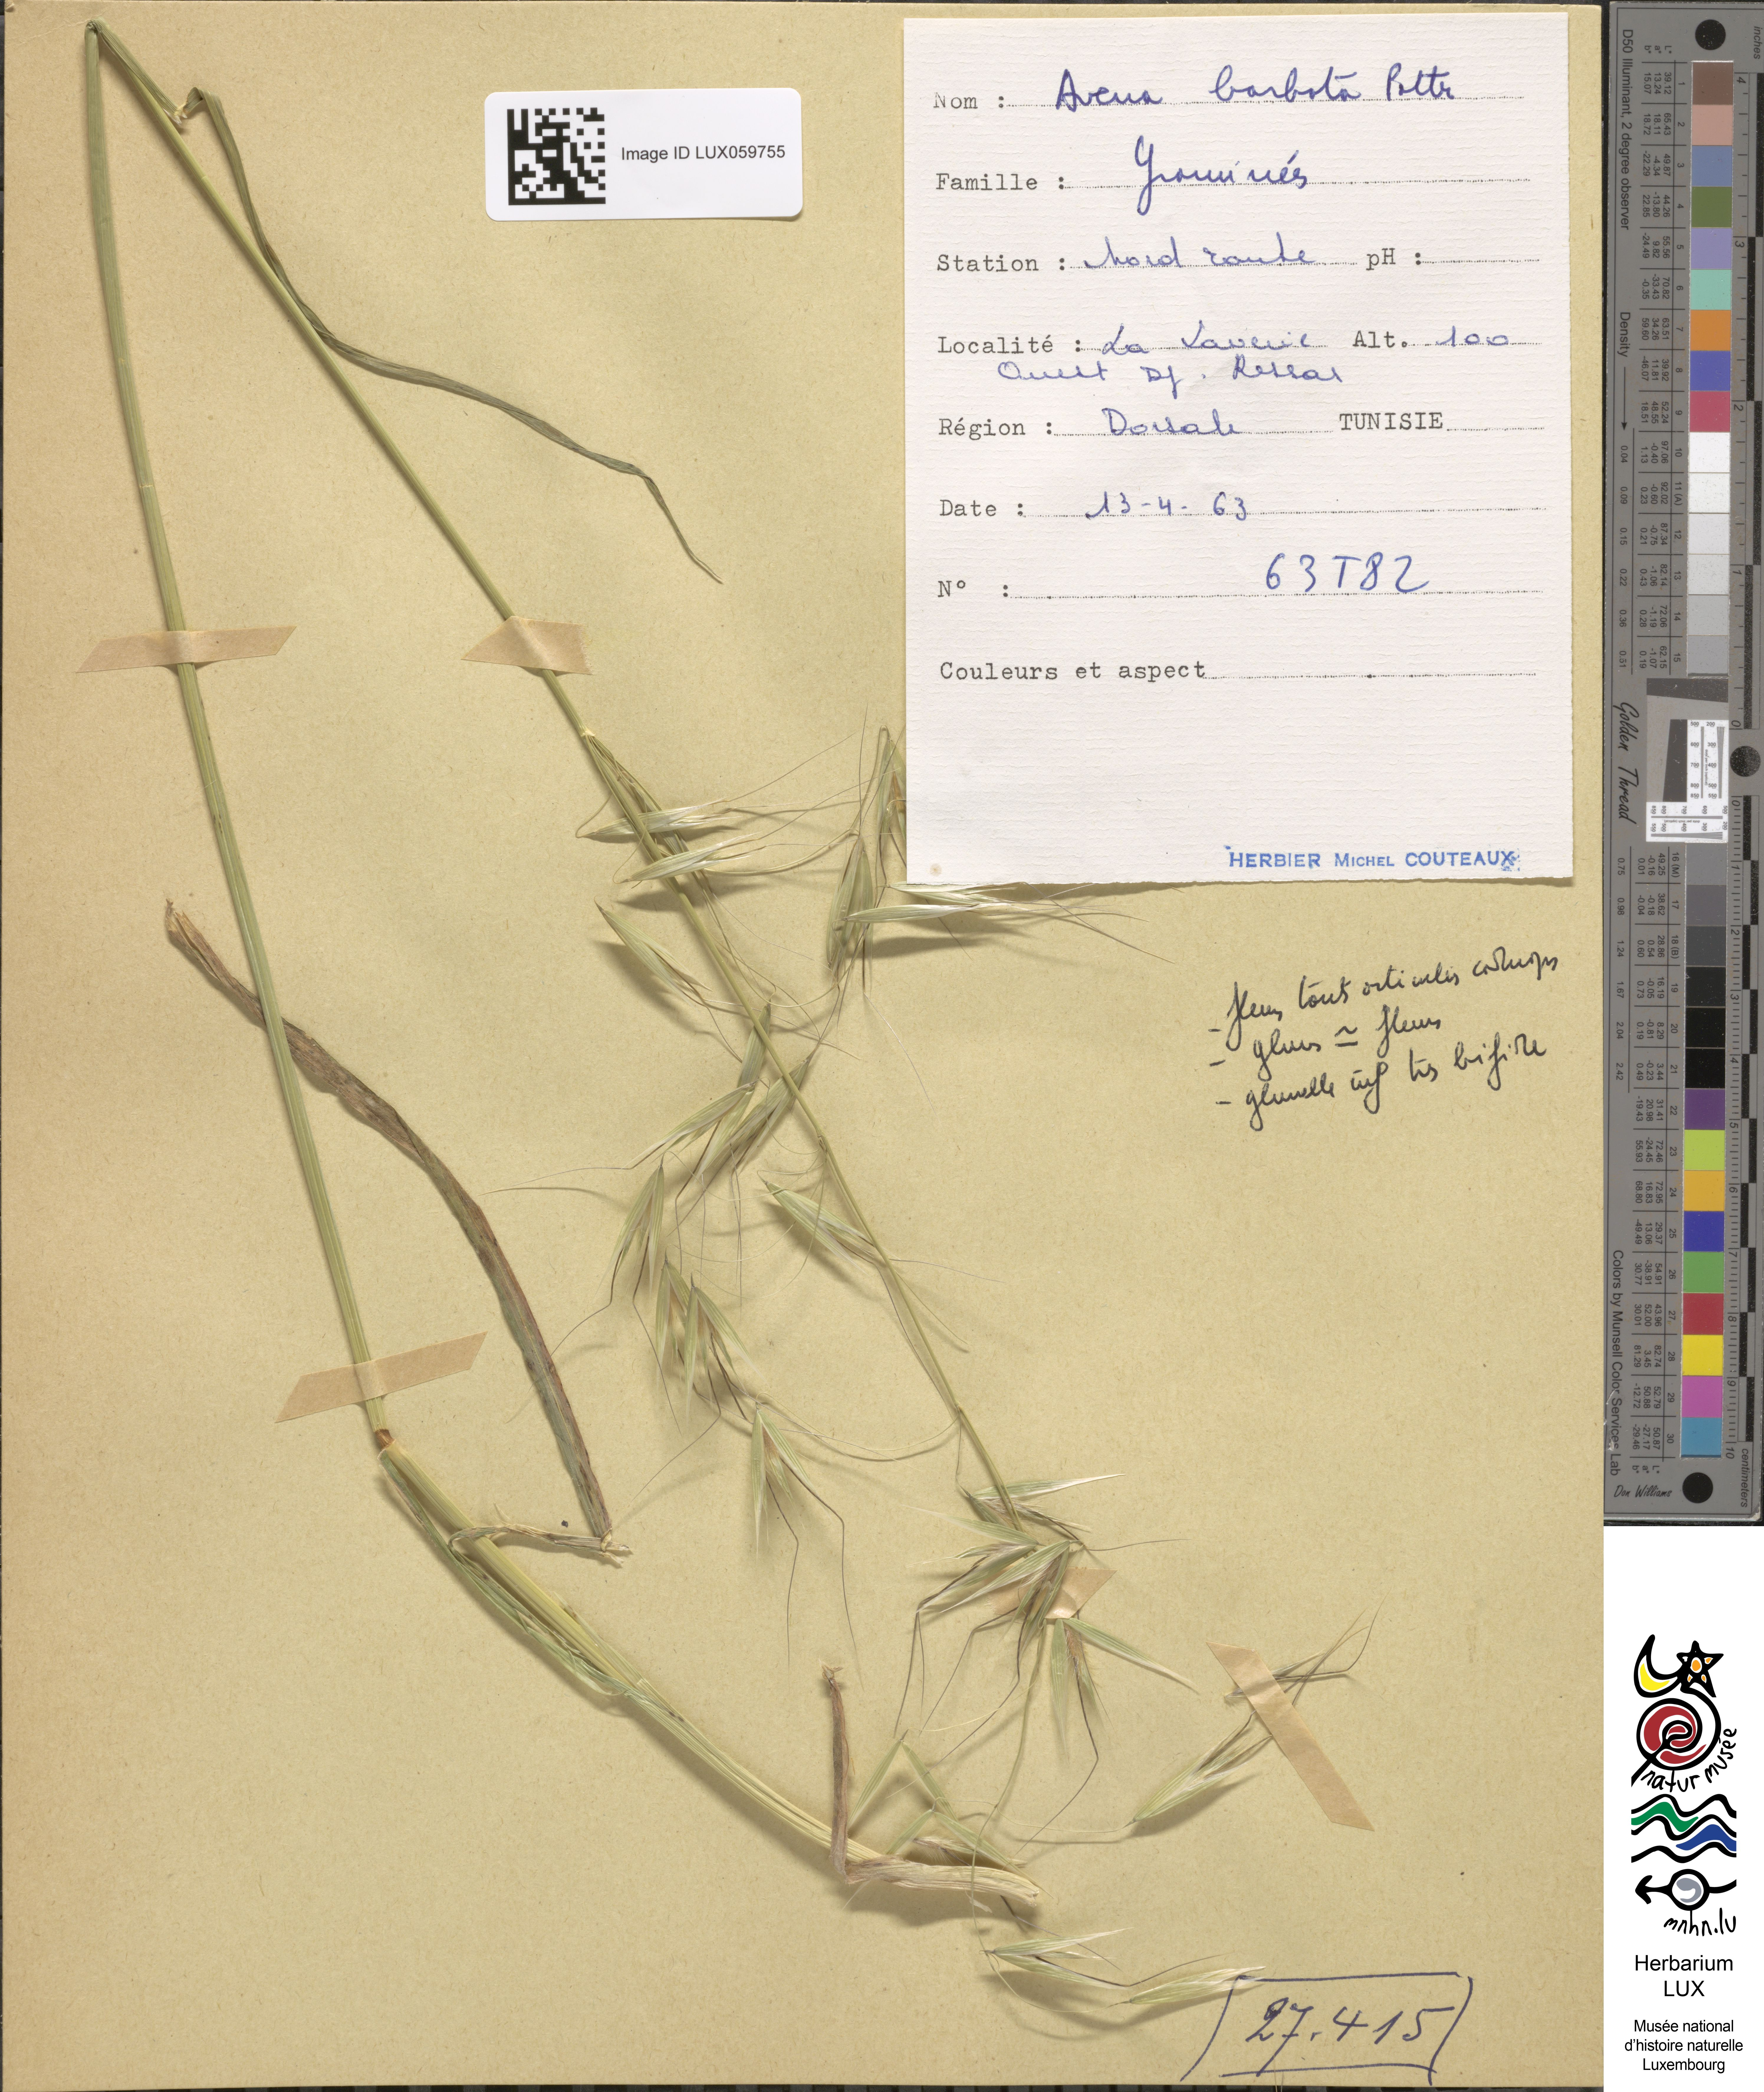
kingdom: Plantae
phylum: Tracheophyta
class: Liliopsida
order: Poales
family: Poaceae
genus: Avena
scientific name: Avena barbata
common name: Slender oat
